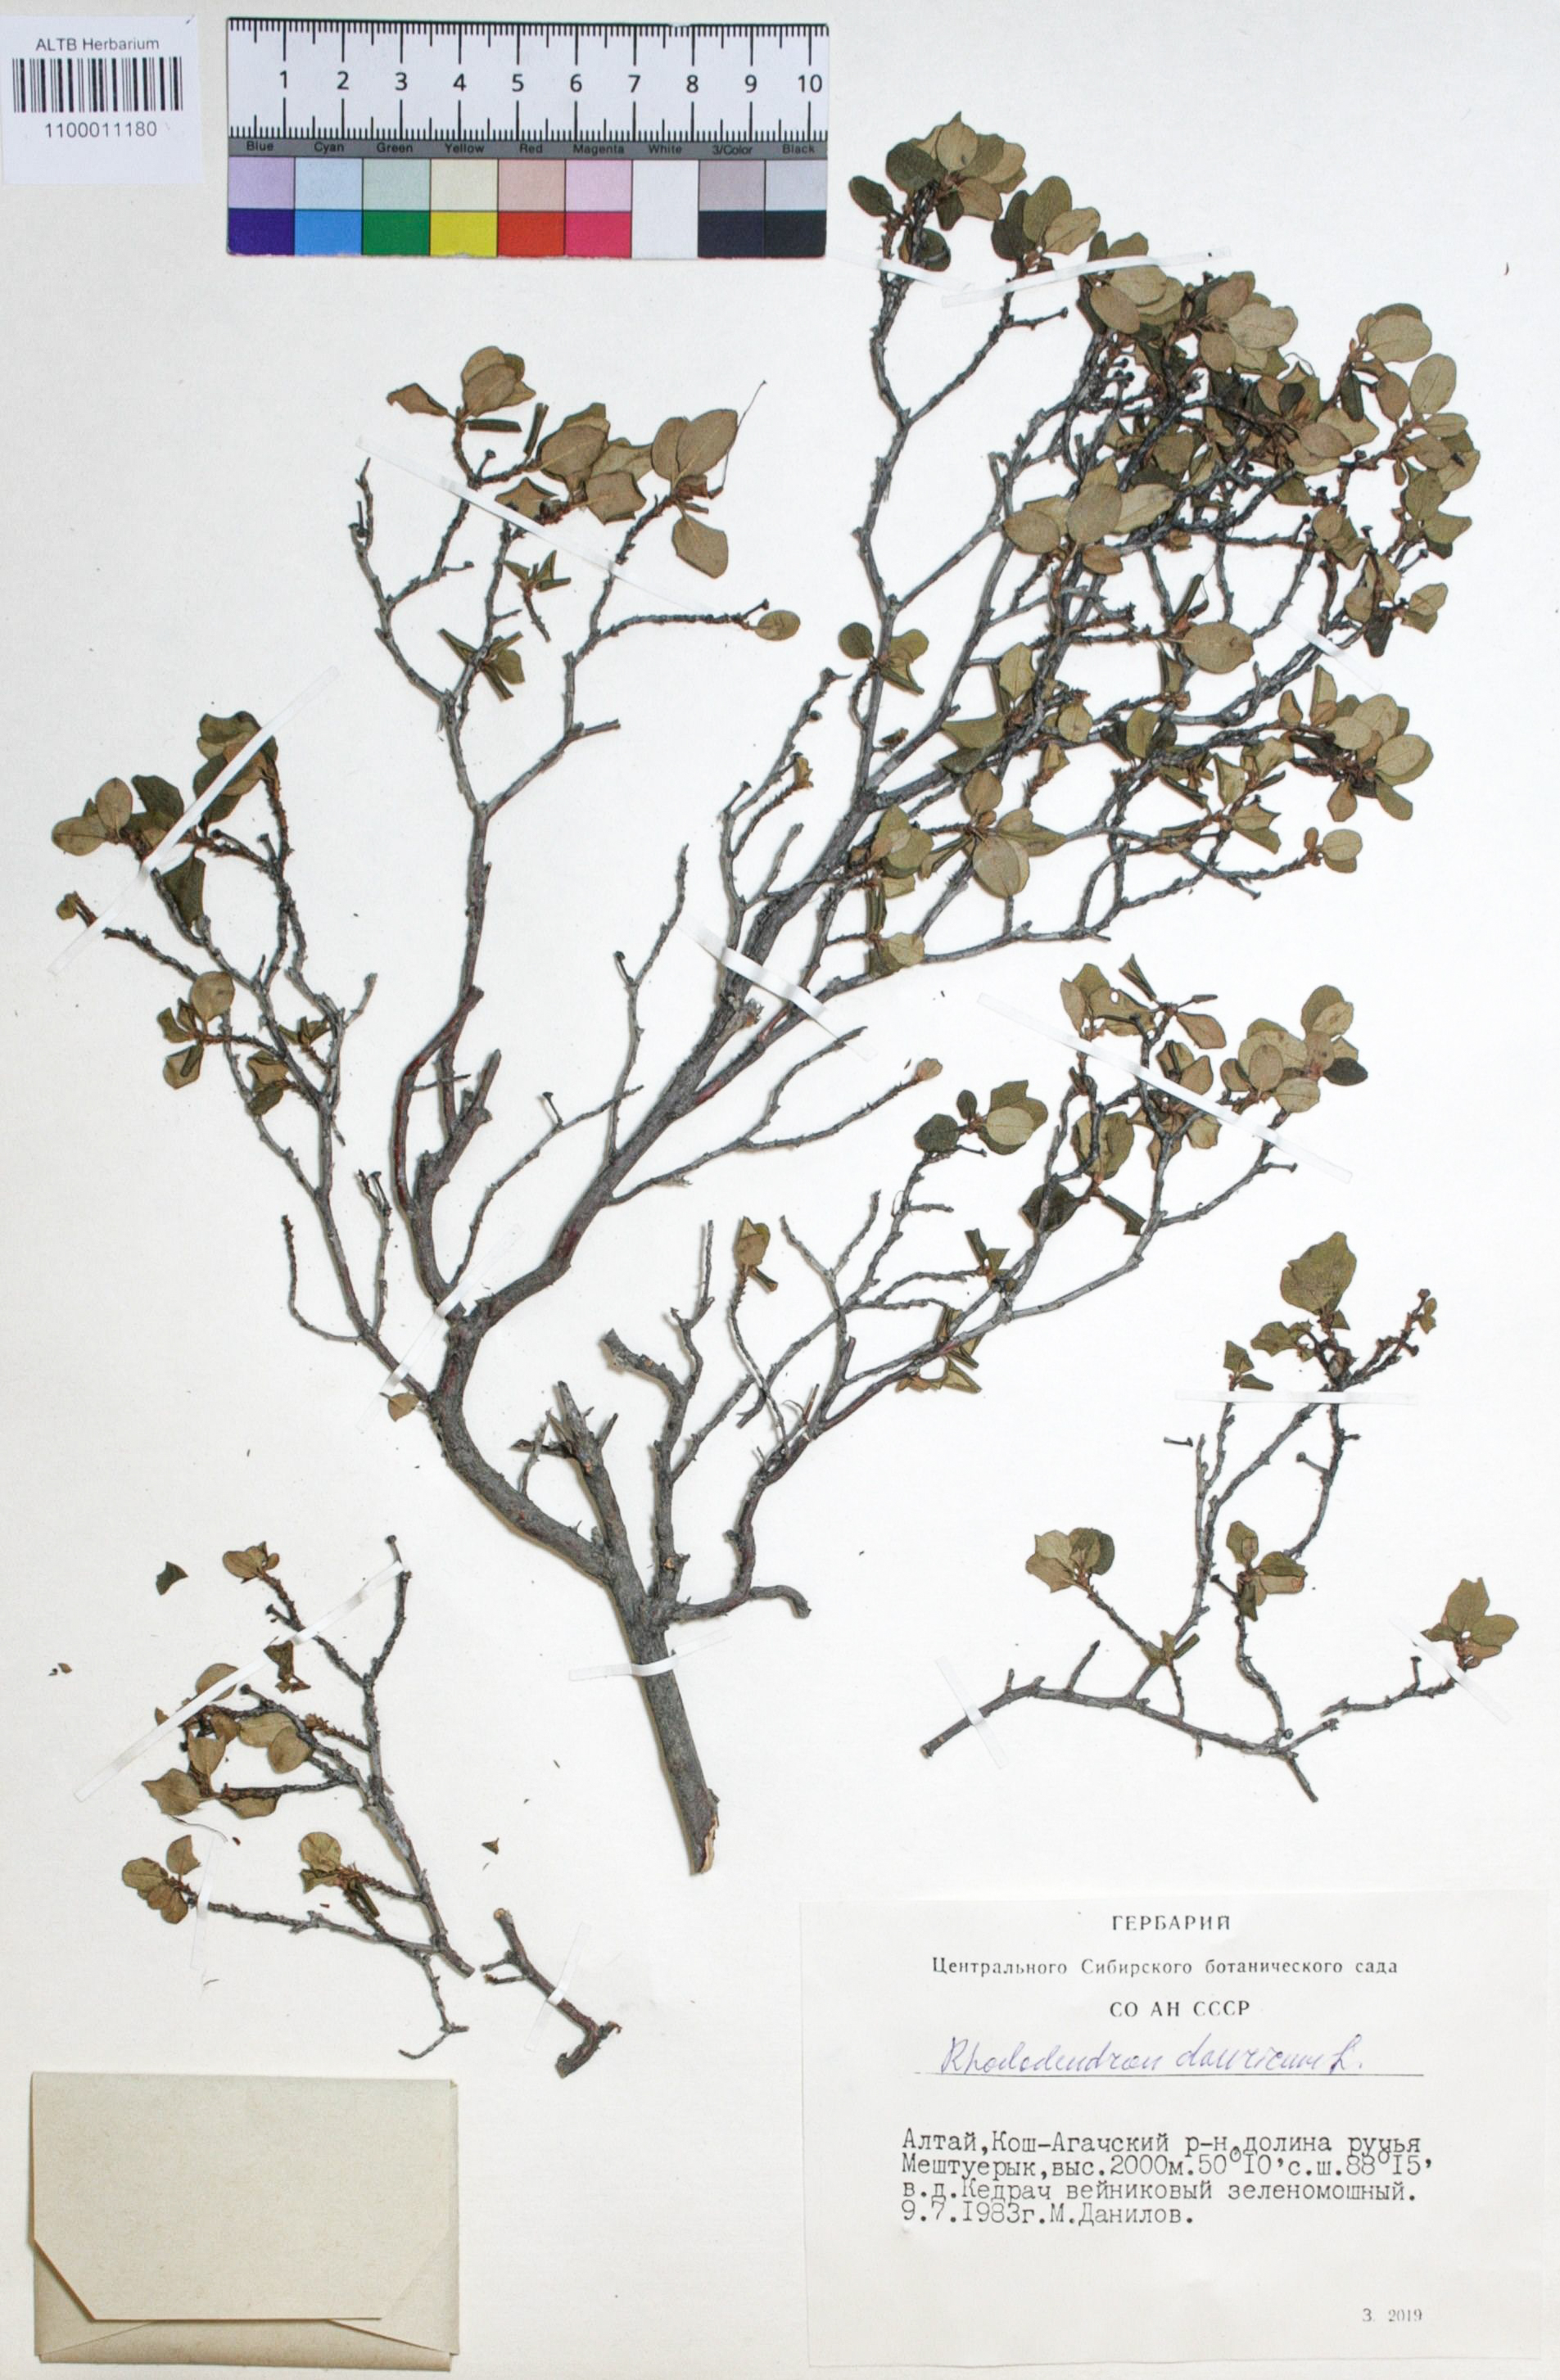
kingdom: Plantae
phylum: Tracheophyta
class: Magnoliopsida
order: Ericales
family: Ericaceae
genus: Rhododendron
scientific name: Rhododendron dahuricum
